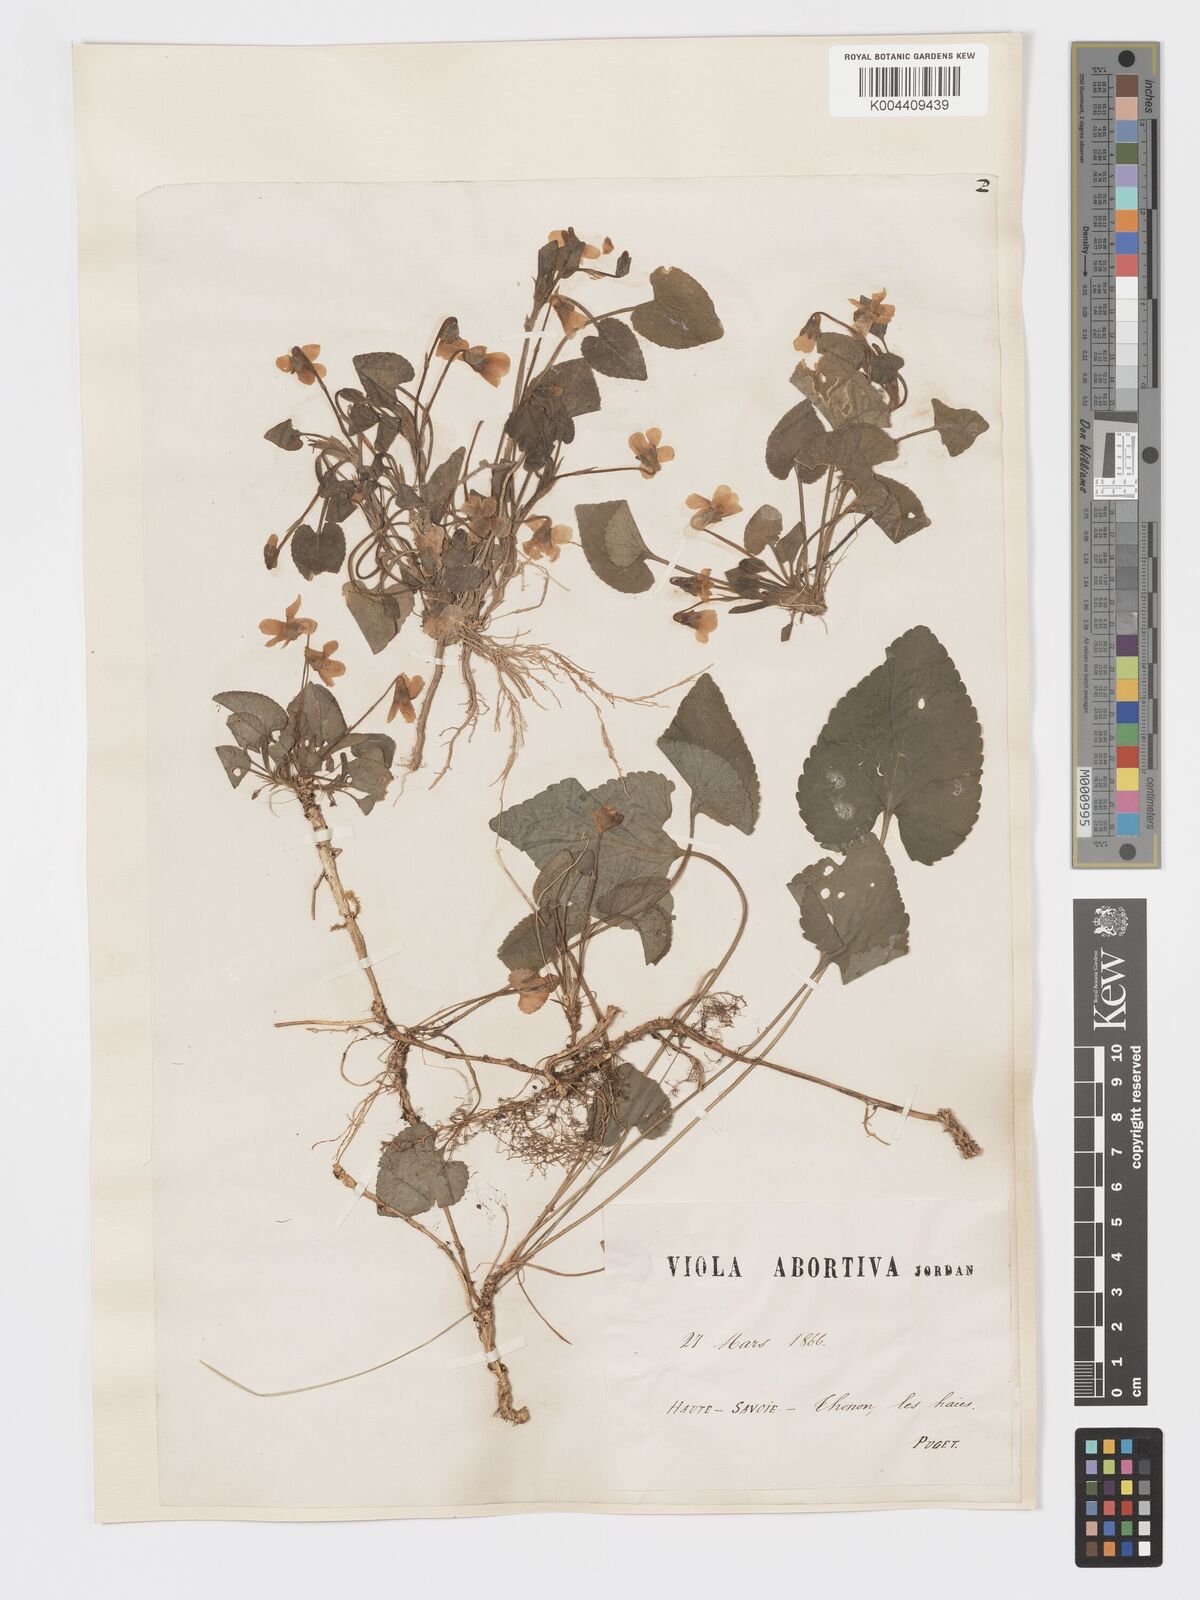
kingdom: Plantae
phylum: Tracheophyta
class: Magnoliopsida
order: Malpighiales
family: Violaceae
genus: Viola
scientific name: Viola alba
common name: White violet
